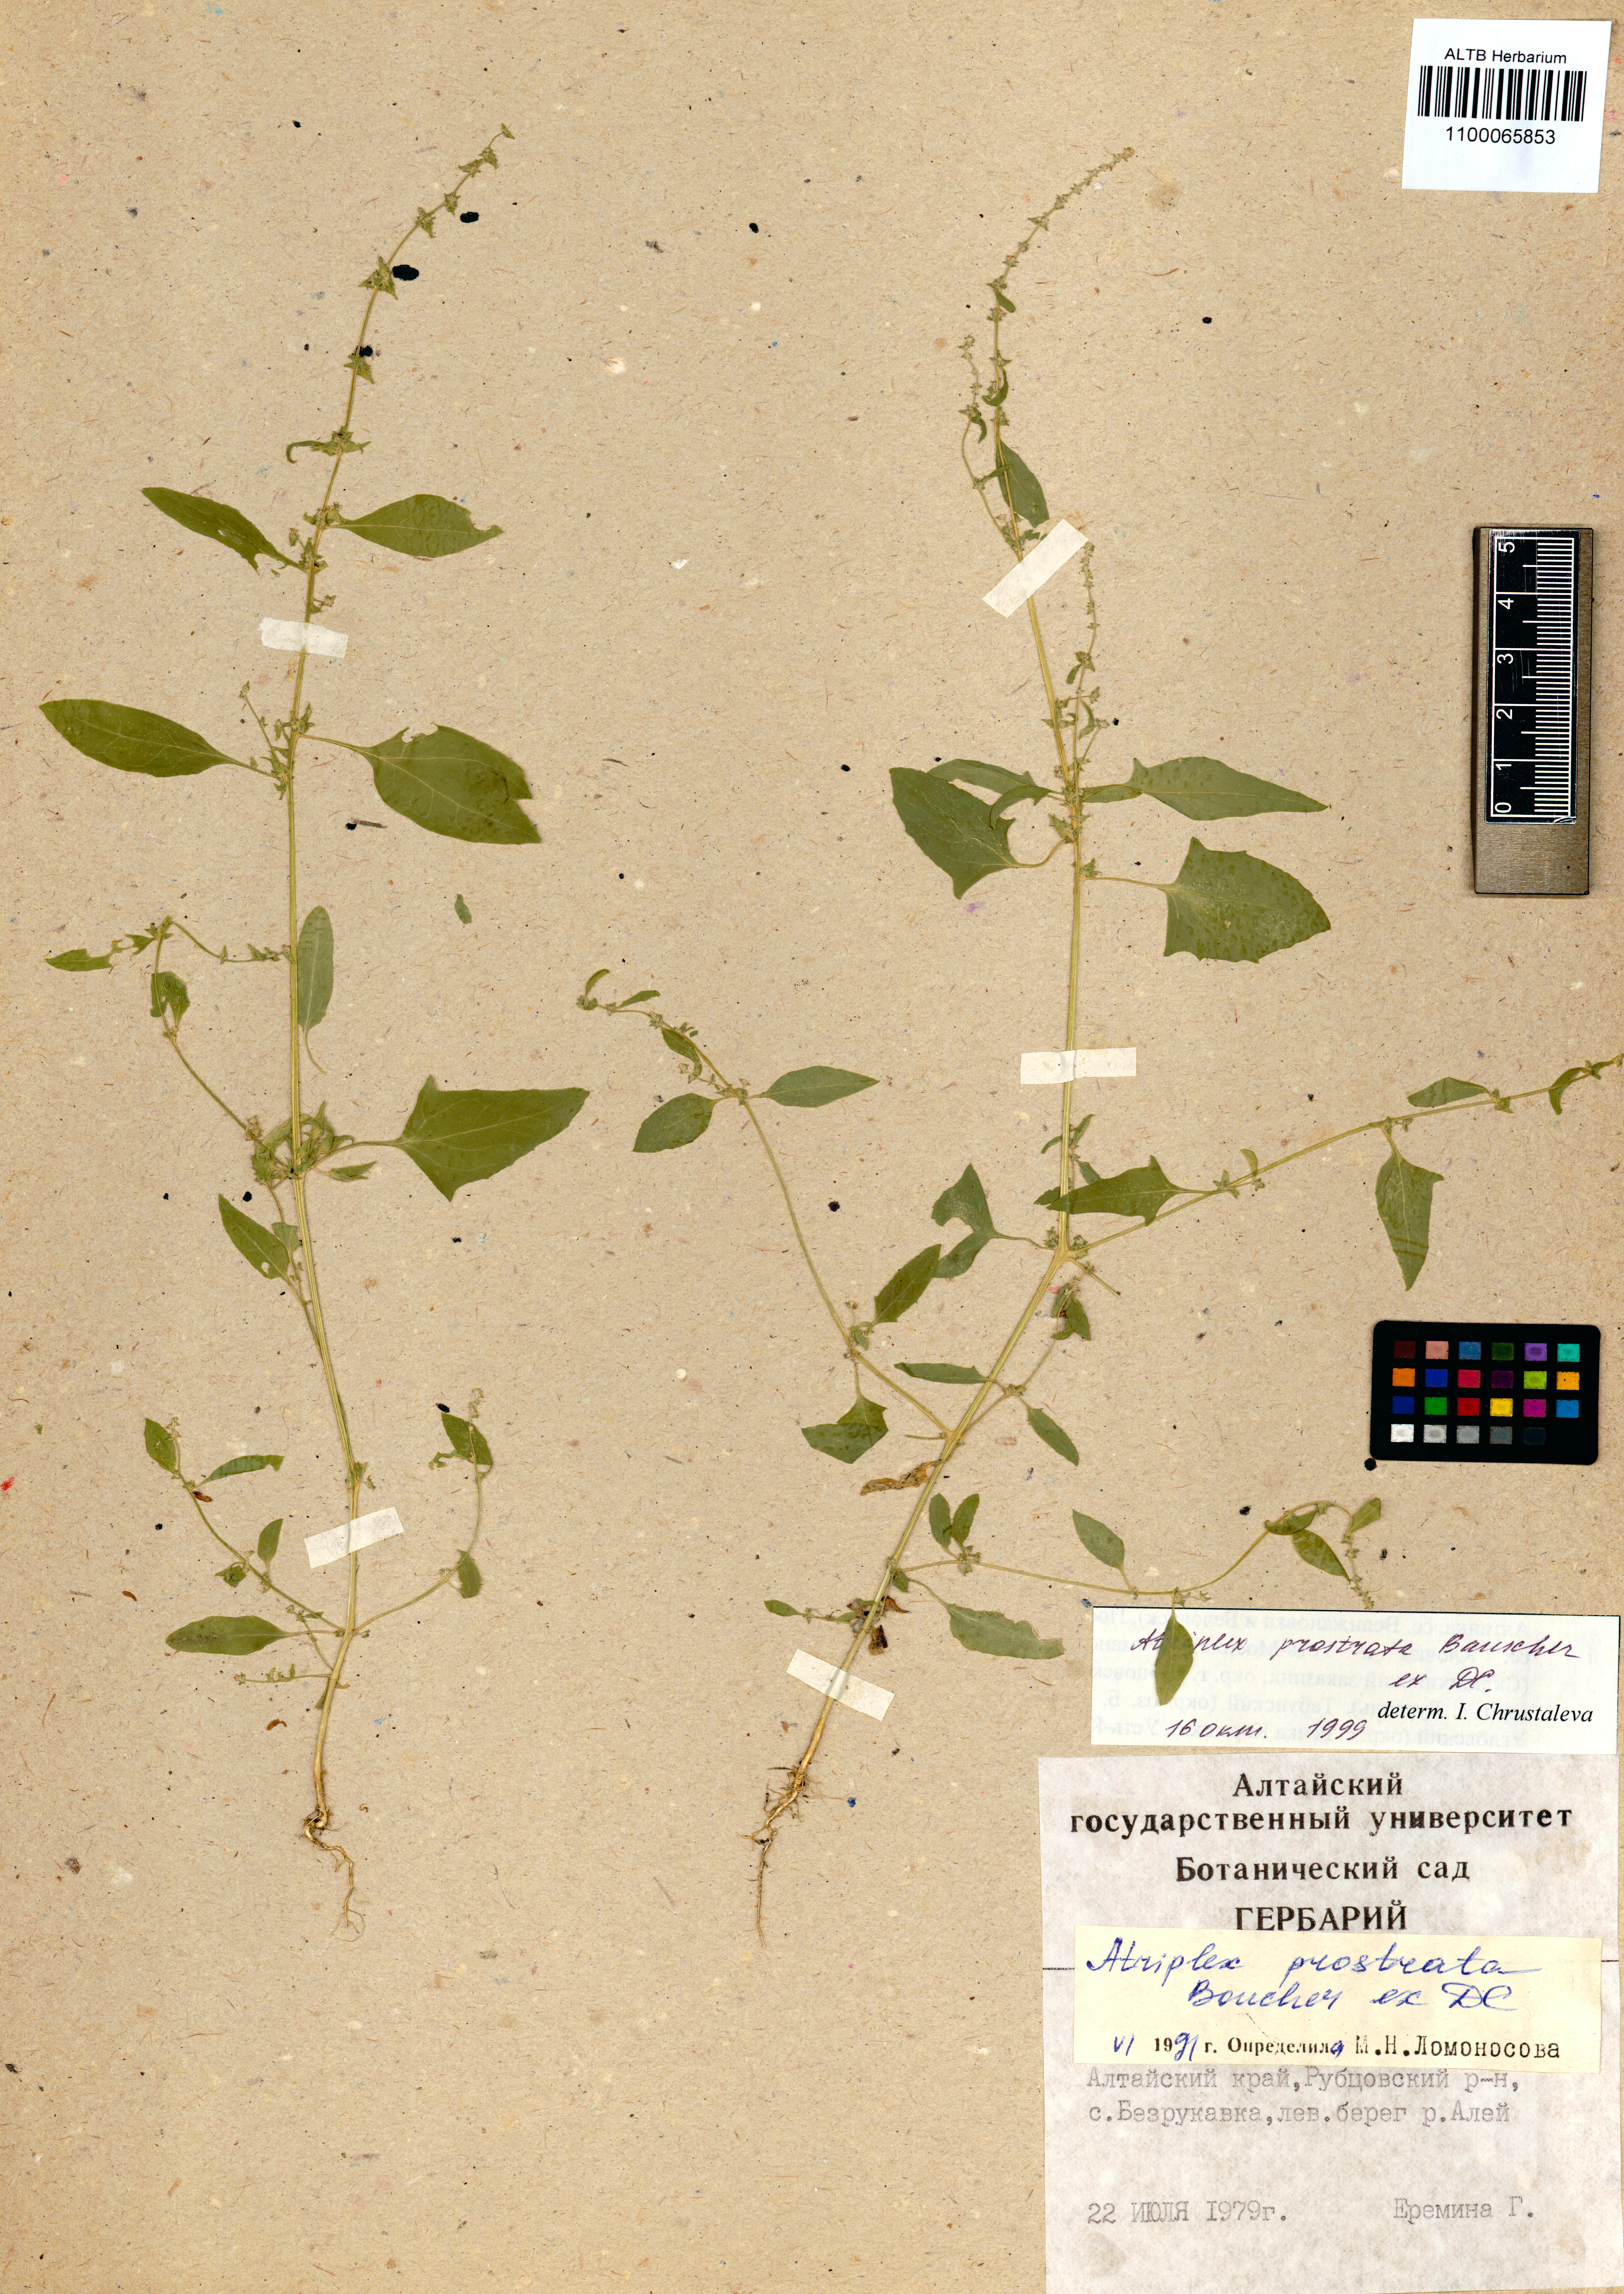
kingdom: Plantae
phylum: Tracheophyta
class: Magnoliopsida
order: Caryophyllales
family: Amaranthaceae
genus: Atriplex
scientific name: Atriplex prostrata
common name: Spear-leaved orache
